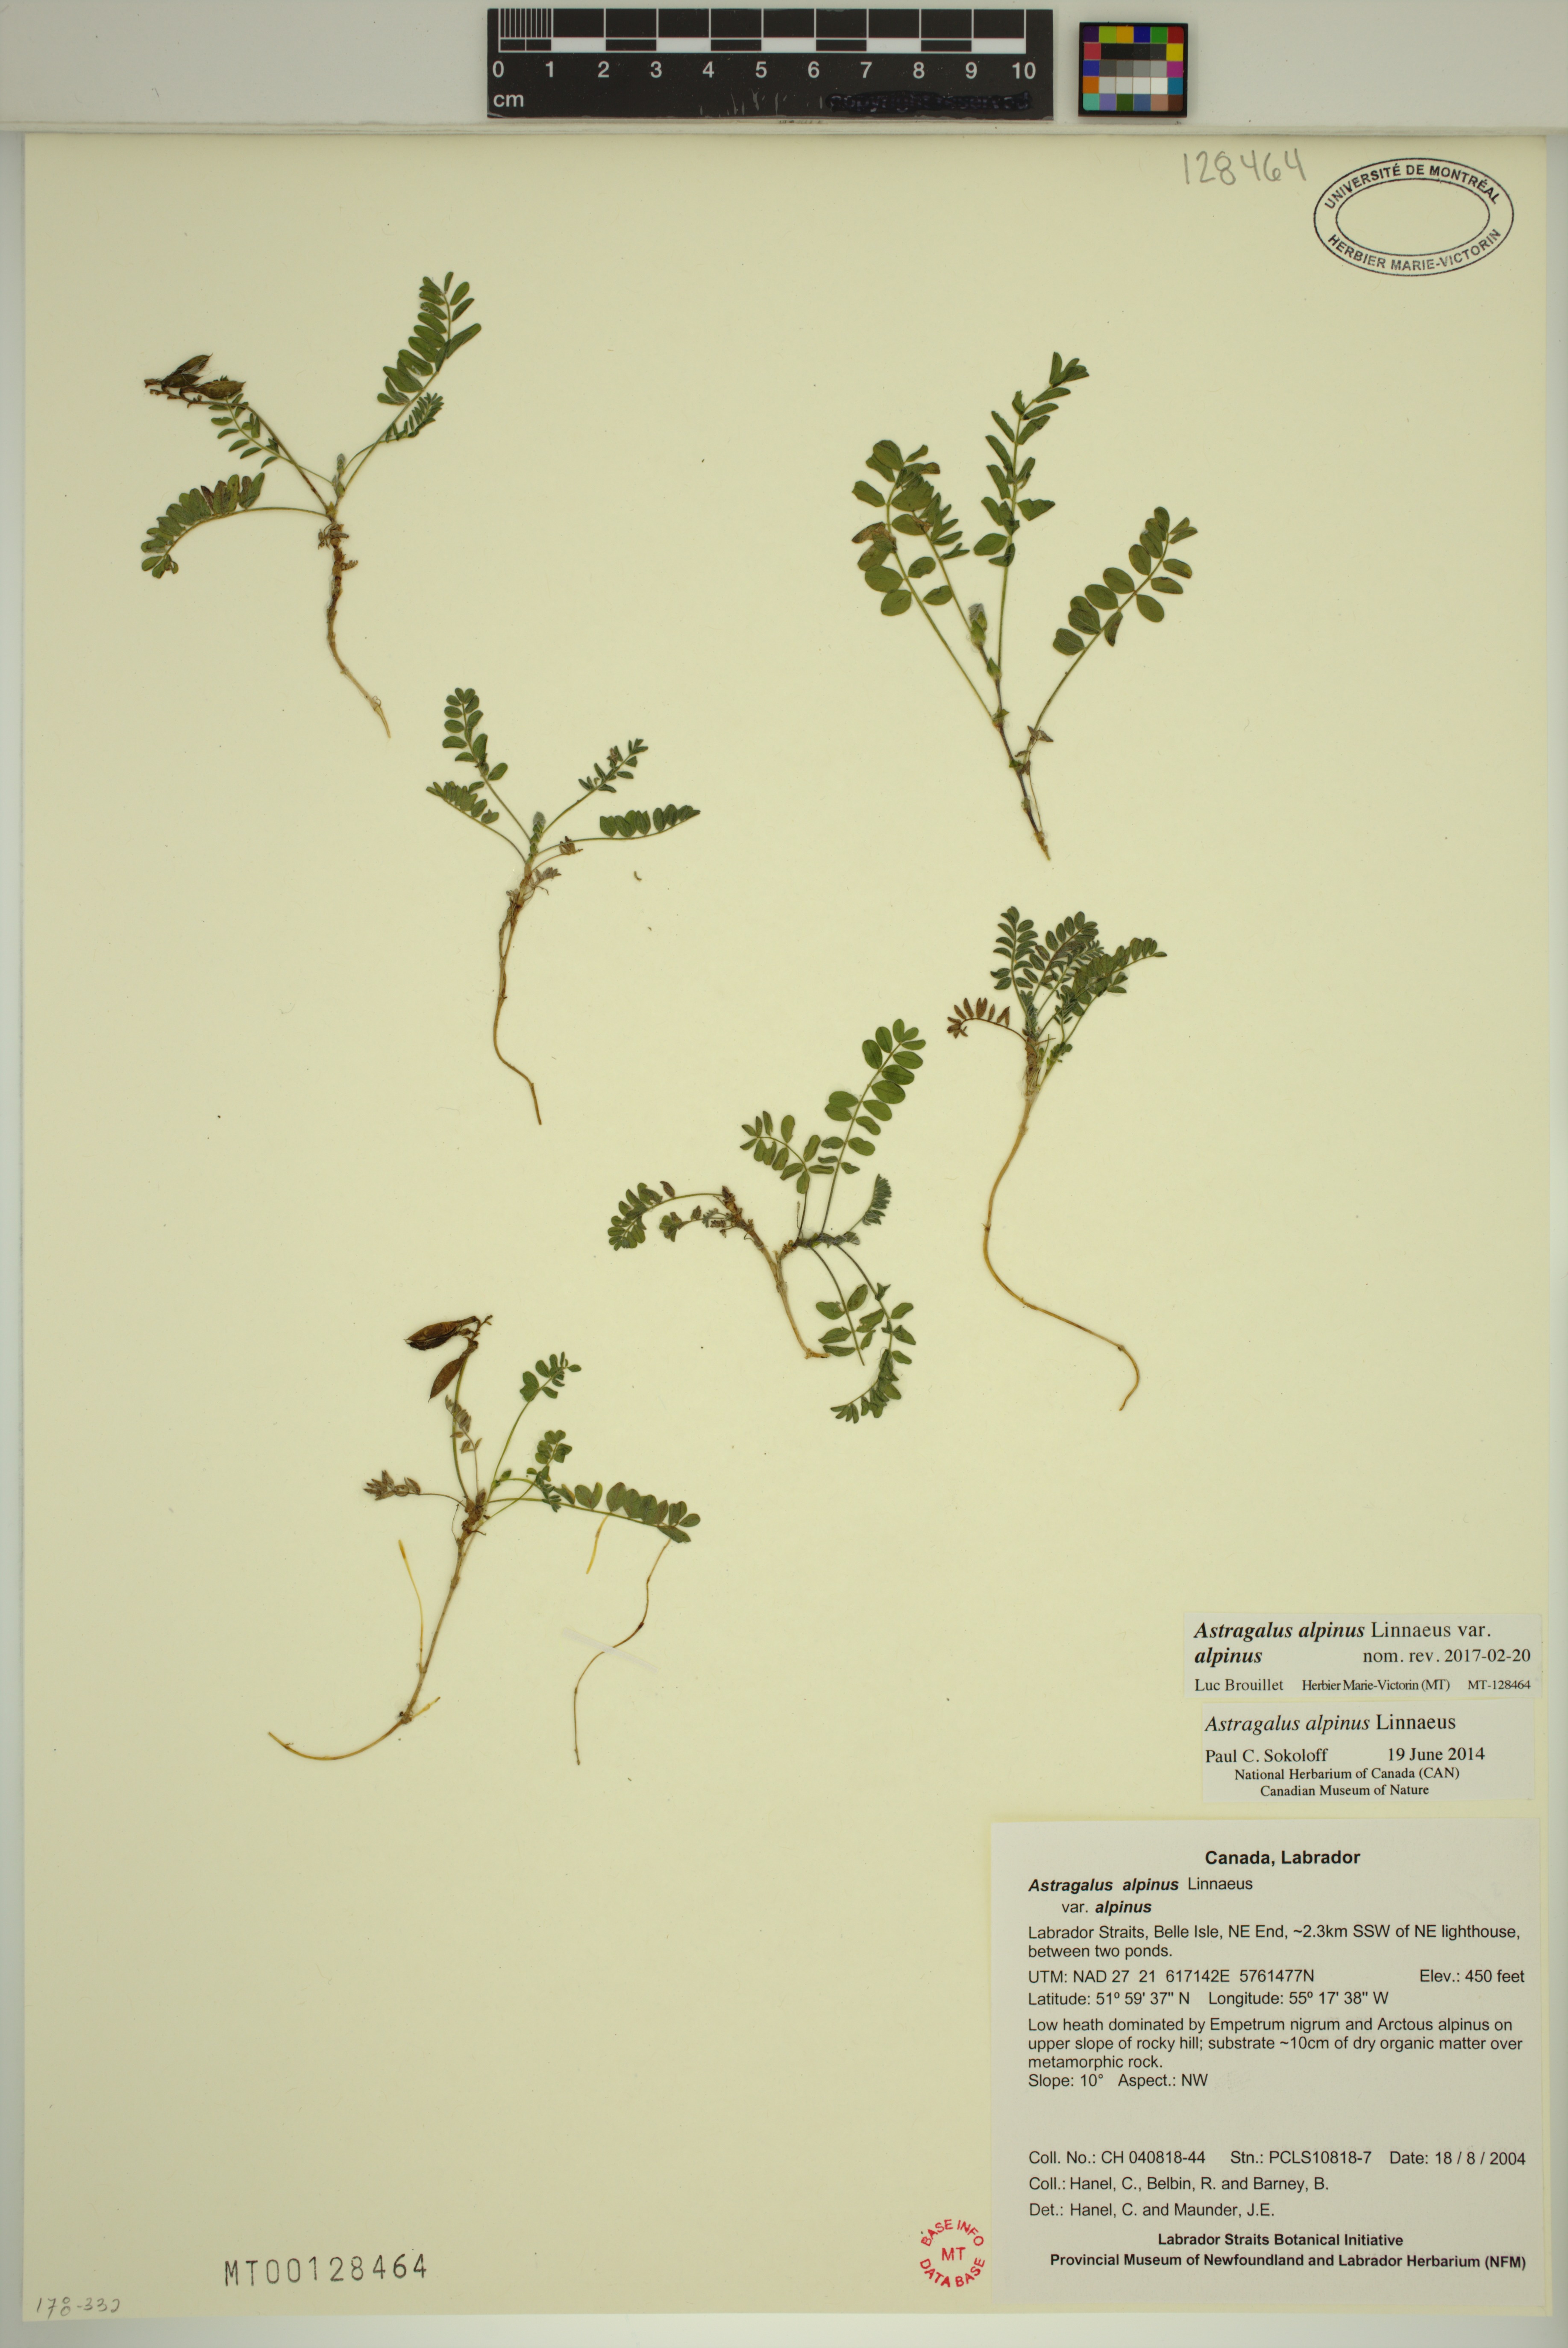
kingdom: Plantae
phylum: Tracheophyta
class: Magnoliopsida
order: Fabales
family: Fabaceae
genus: Astragalus
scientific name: Astragalus alpinus
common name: Alpine milk-vetch
